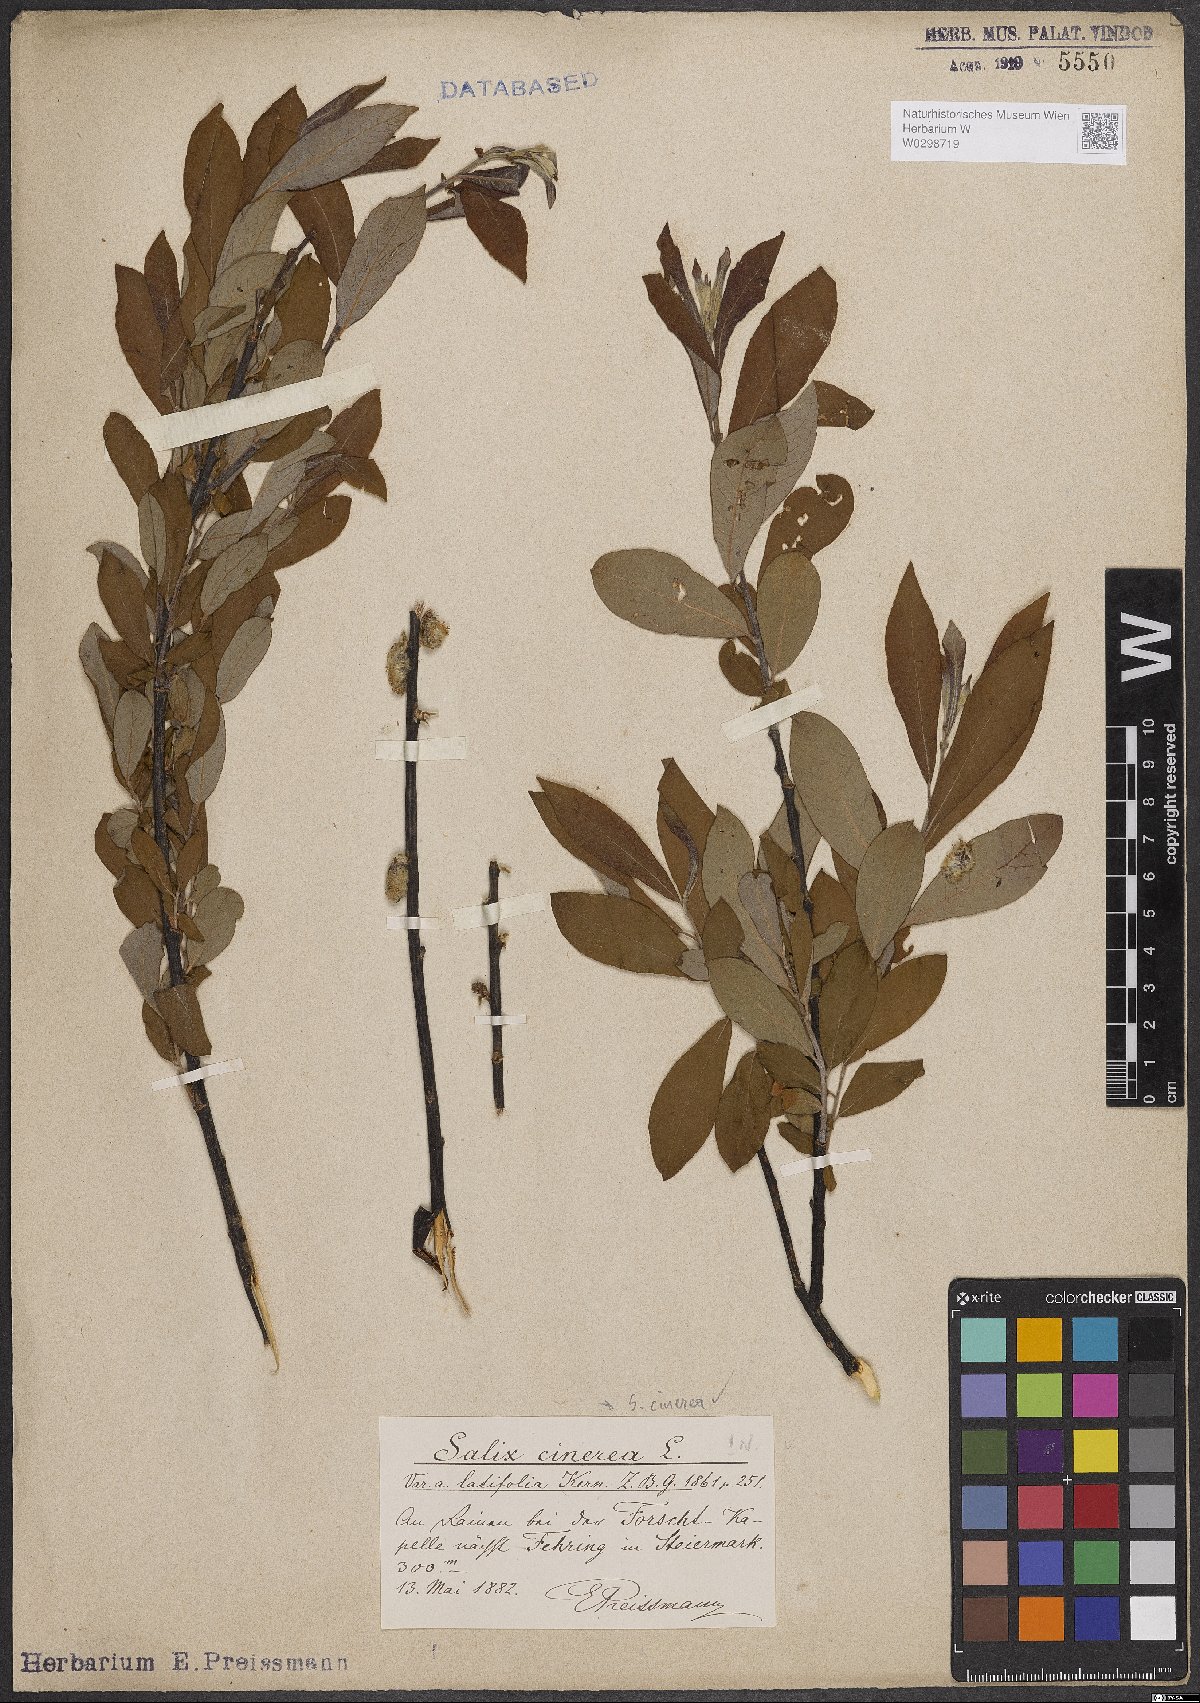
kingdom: Plantae
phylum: Tracheophyta
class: Magnoliopsida
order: Malpighiales
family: Salicaceae
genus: Salix
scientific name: Salix cinerea
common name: Common sallow
